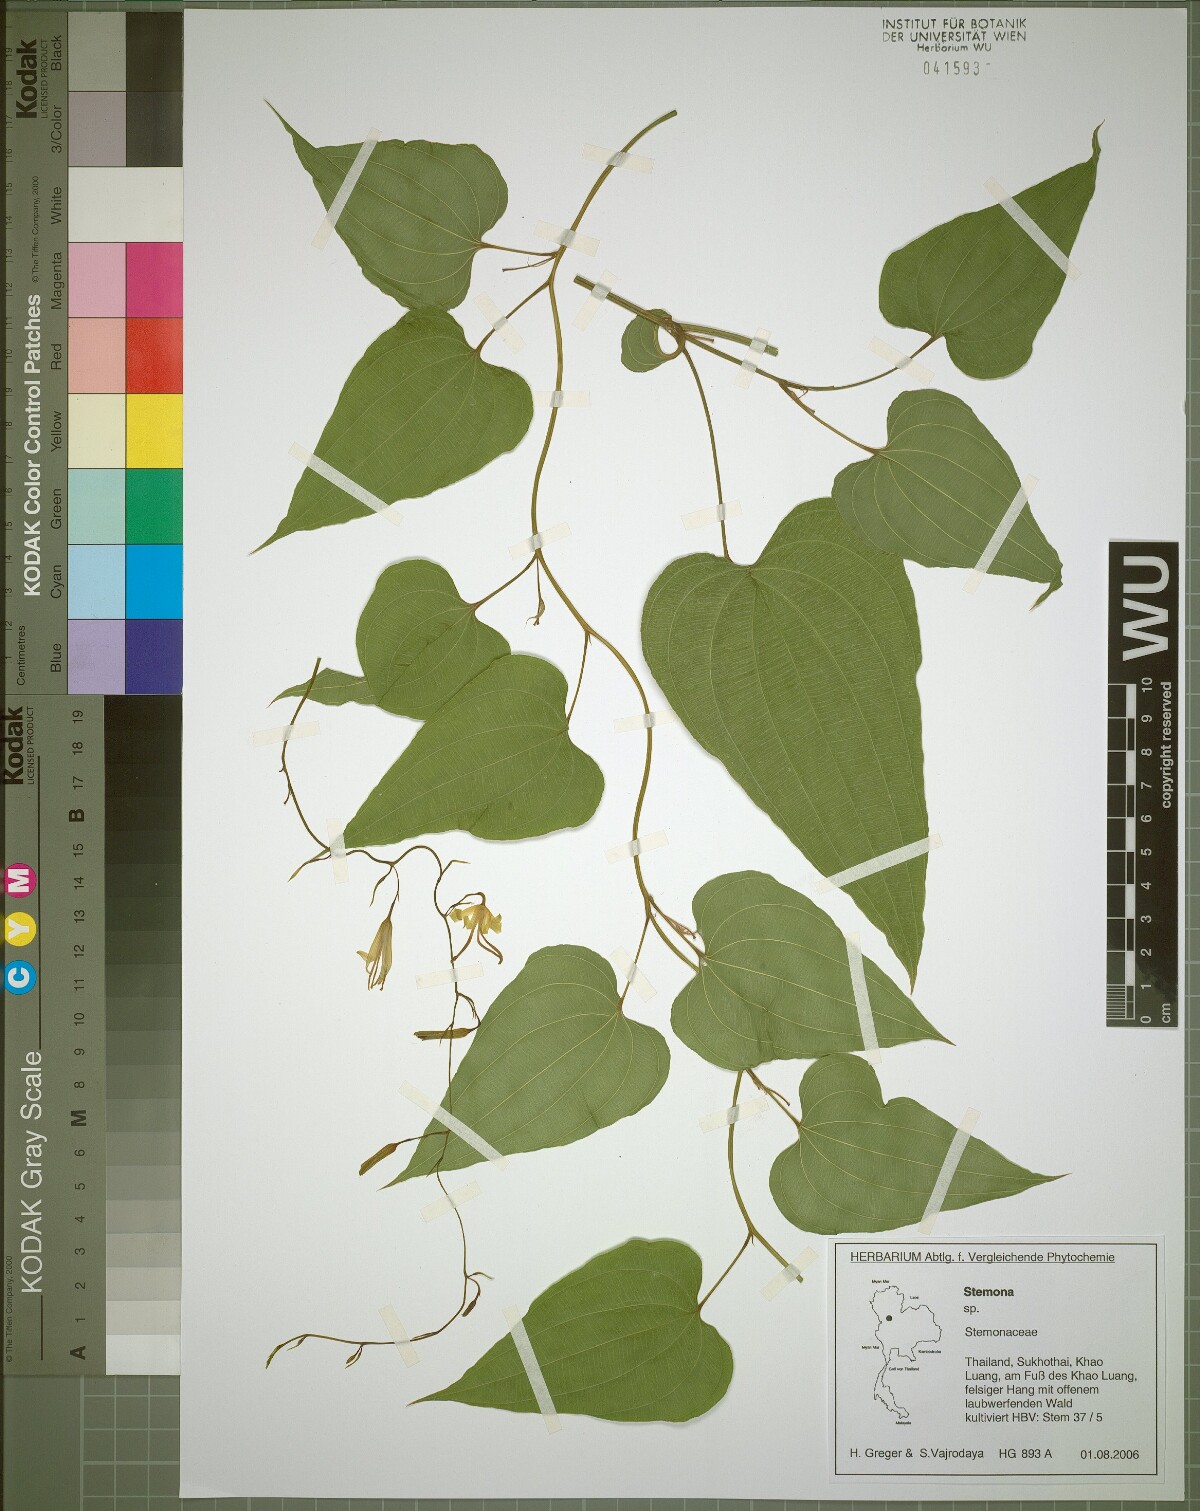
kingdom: Plantae
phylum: Tracheophyta
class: Liliopsida
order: Pandanales
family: Stemonaceae
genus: Stemona
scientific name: Stemona aphylla
